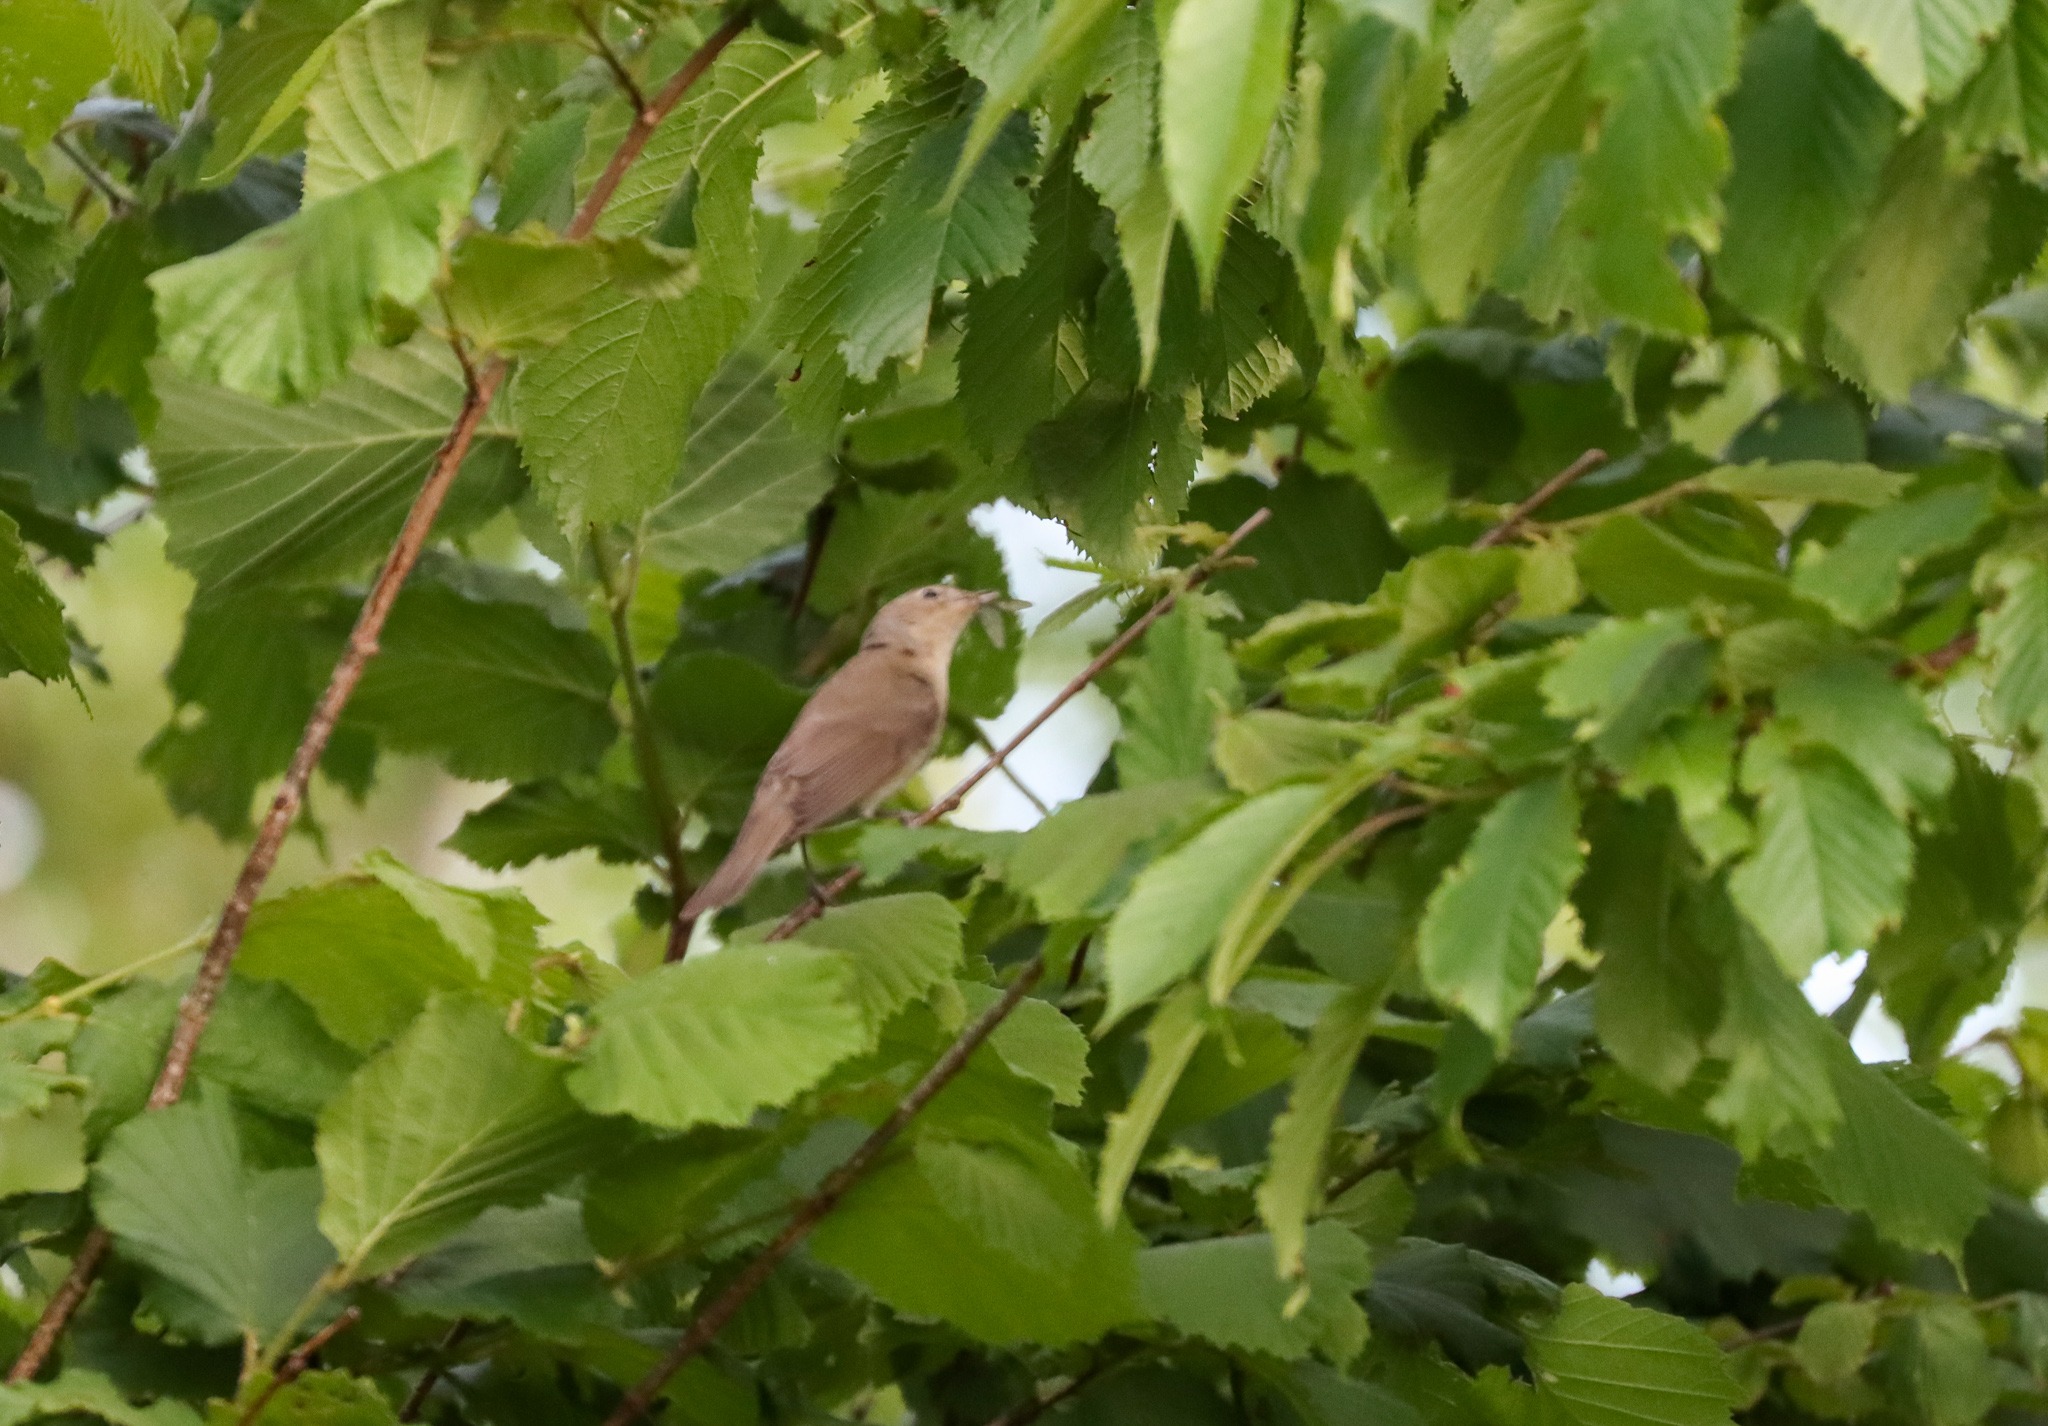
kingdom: Animalia
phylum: Chordata
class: Aves
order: Passeriformes
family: Sylviidae
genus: Sylvia
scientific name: Sylvia borin
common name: Havesanger
